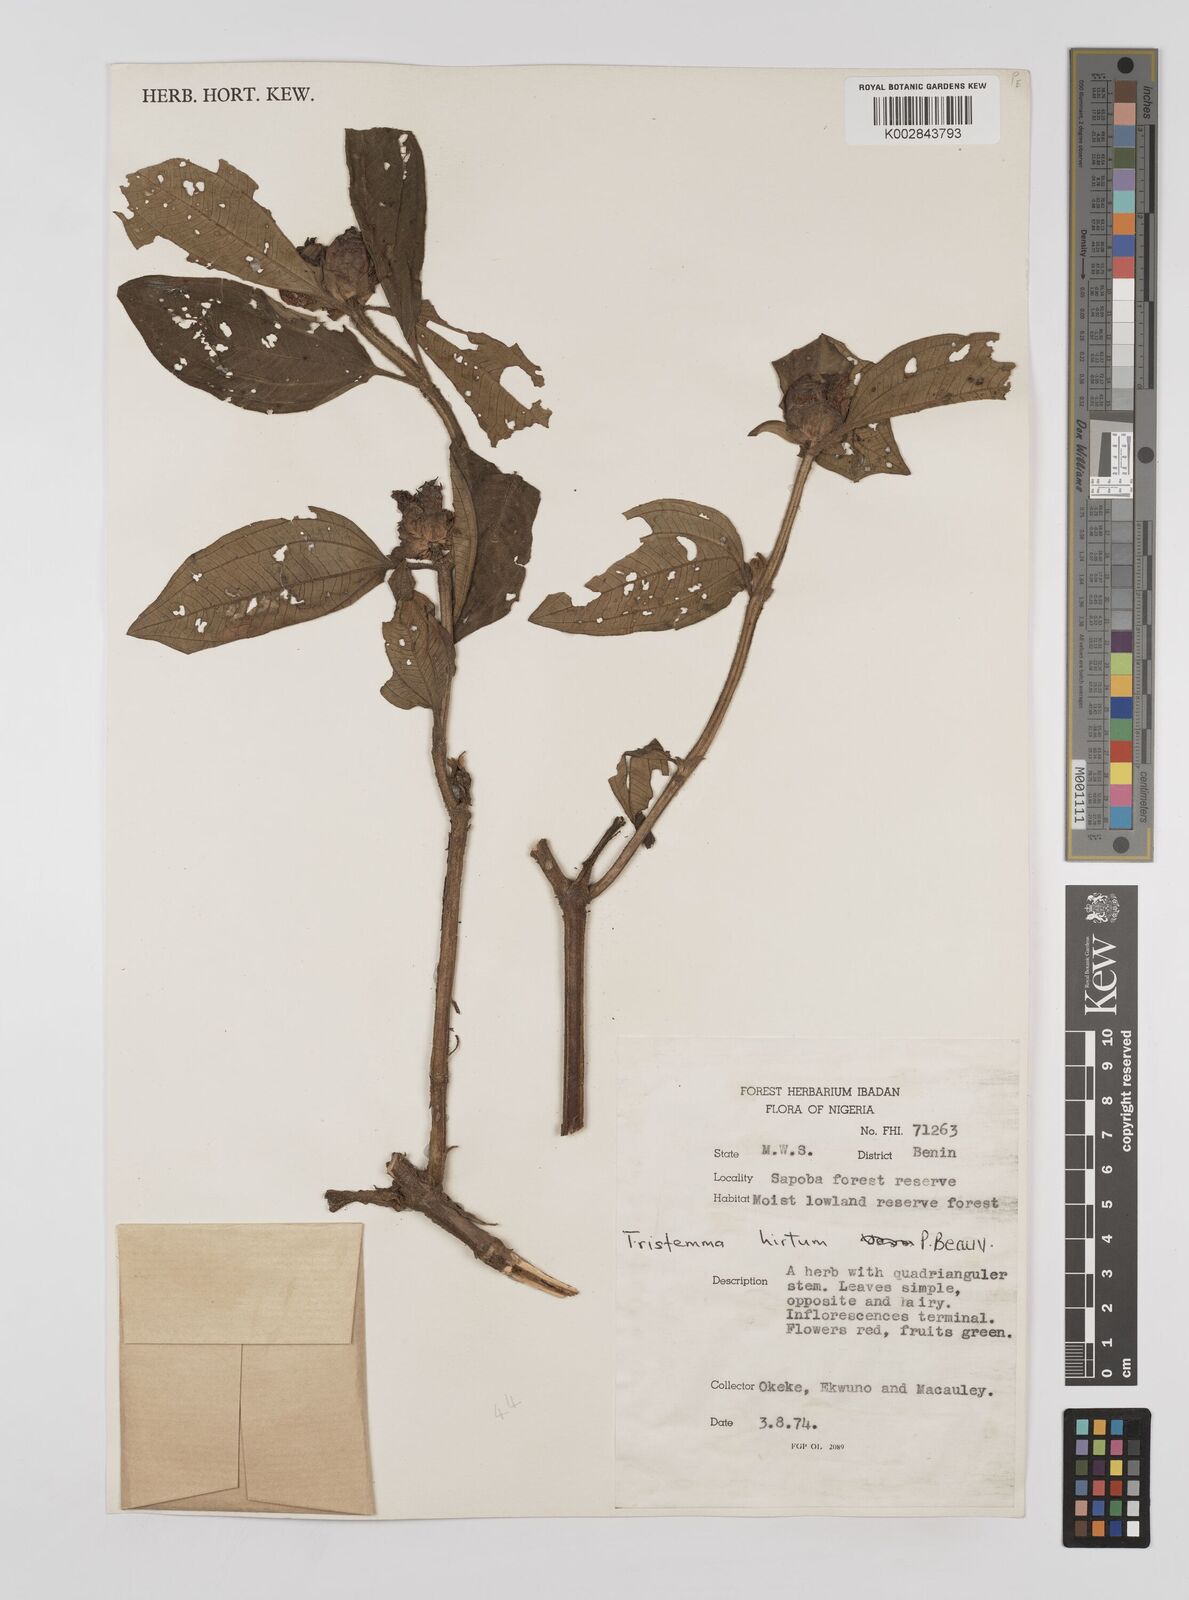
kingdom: Plantae
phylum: Tracheophyta
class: Magnoliopsida
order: Myrtales
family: Melastomataceae
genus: Tristemma
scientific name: Tristemma hirtum
